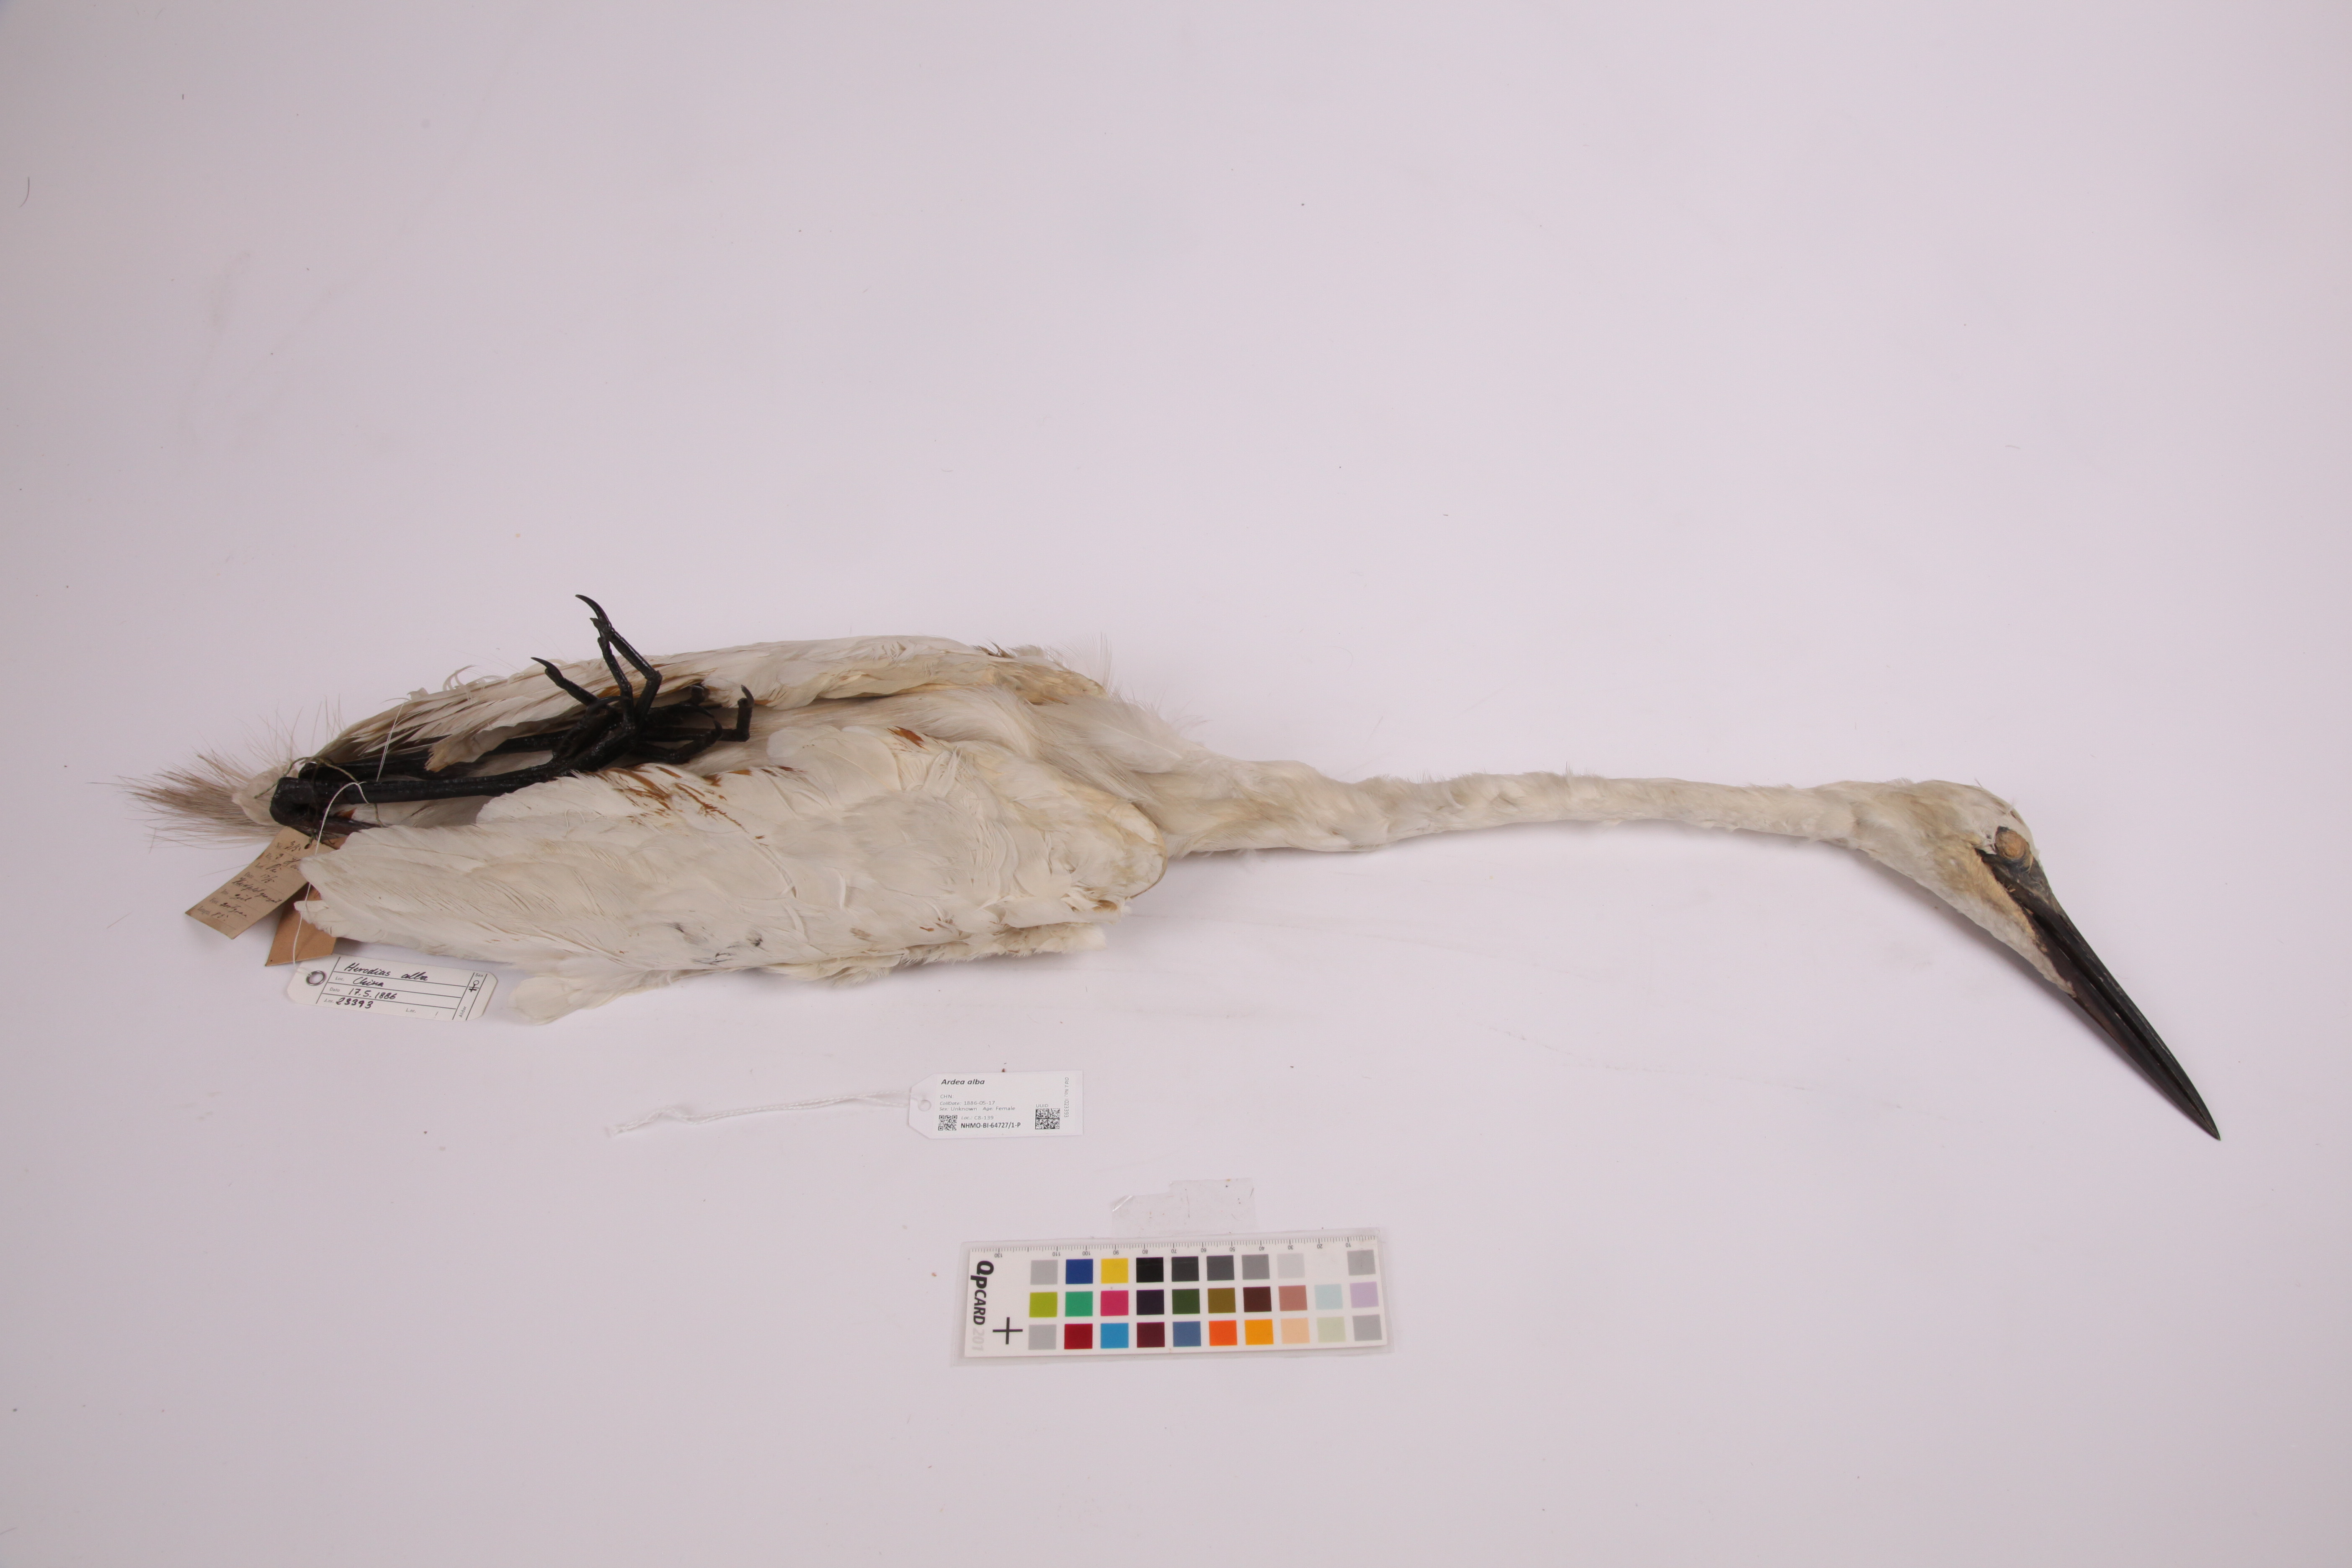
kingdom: Animalia
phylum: Chordata
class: Aves
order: Pelecaniformes
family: Ardeidae
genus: Ardea
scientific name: Ardea alba
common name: Great egret
